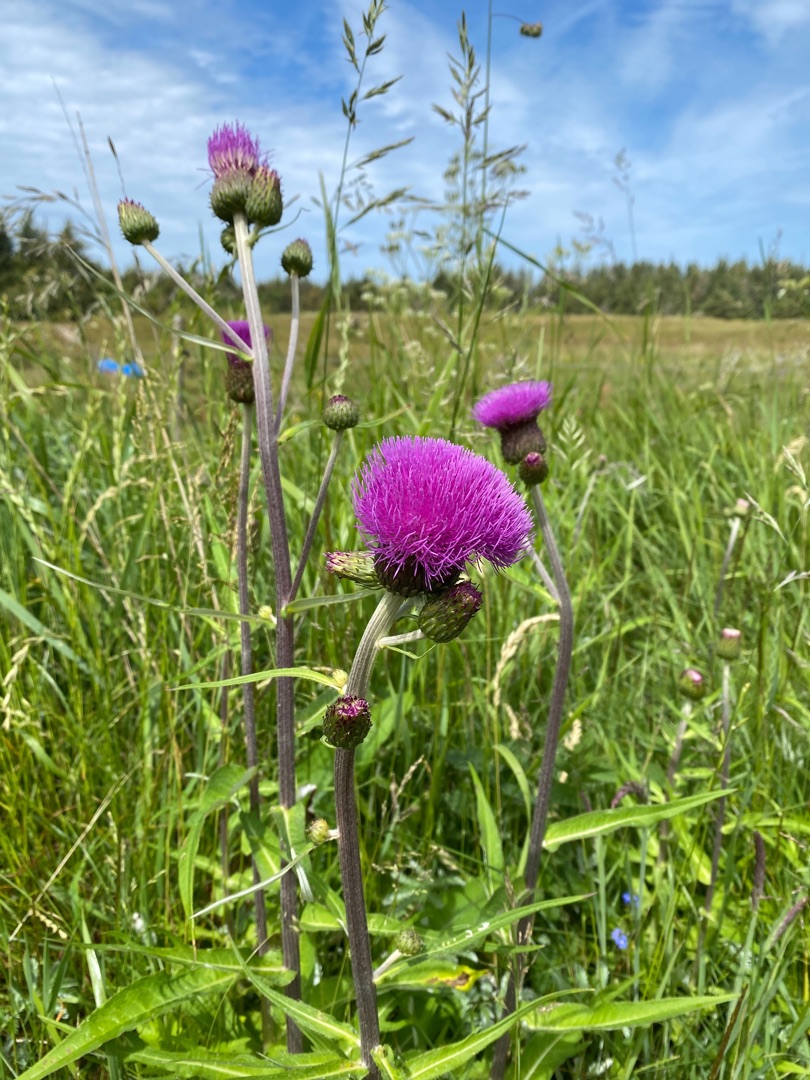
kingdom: Plantae
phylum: Tracheophyta
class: Magnoliopsida
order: Asterales
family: Asteraceae
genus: Cirsium
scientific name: Cirsium heterophyllum
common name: Forskelligbladet tidsel
